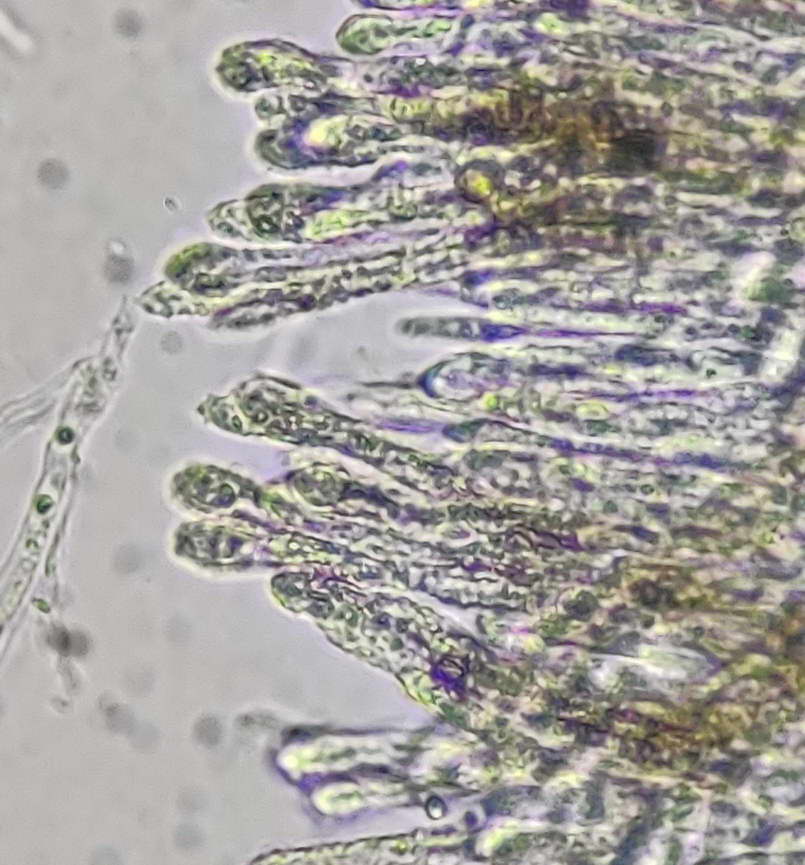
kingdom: Fungi
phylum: Ascomycota
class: Leotiomycetes
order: Helotiales
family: Lachnaceae
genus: Lachnum
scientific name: Lachnum controversum
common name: tagrør-frynseskive
